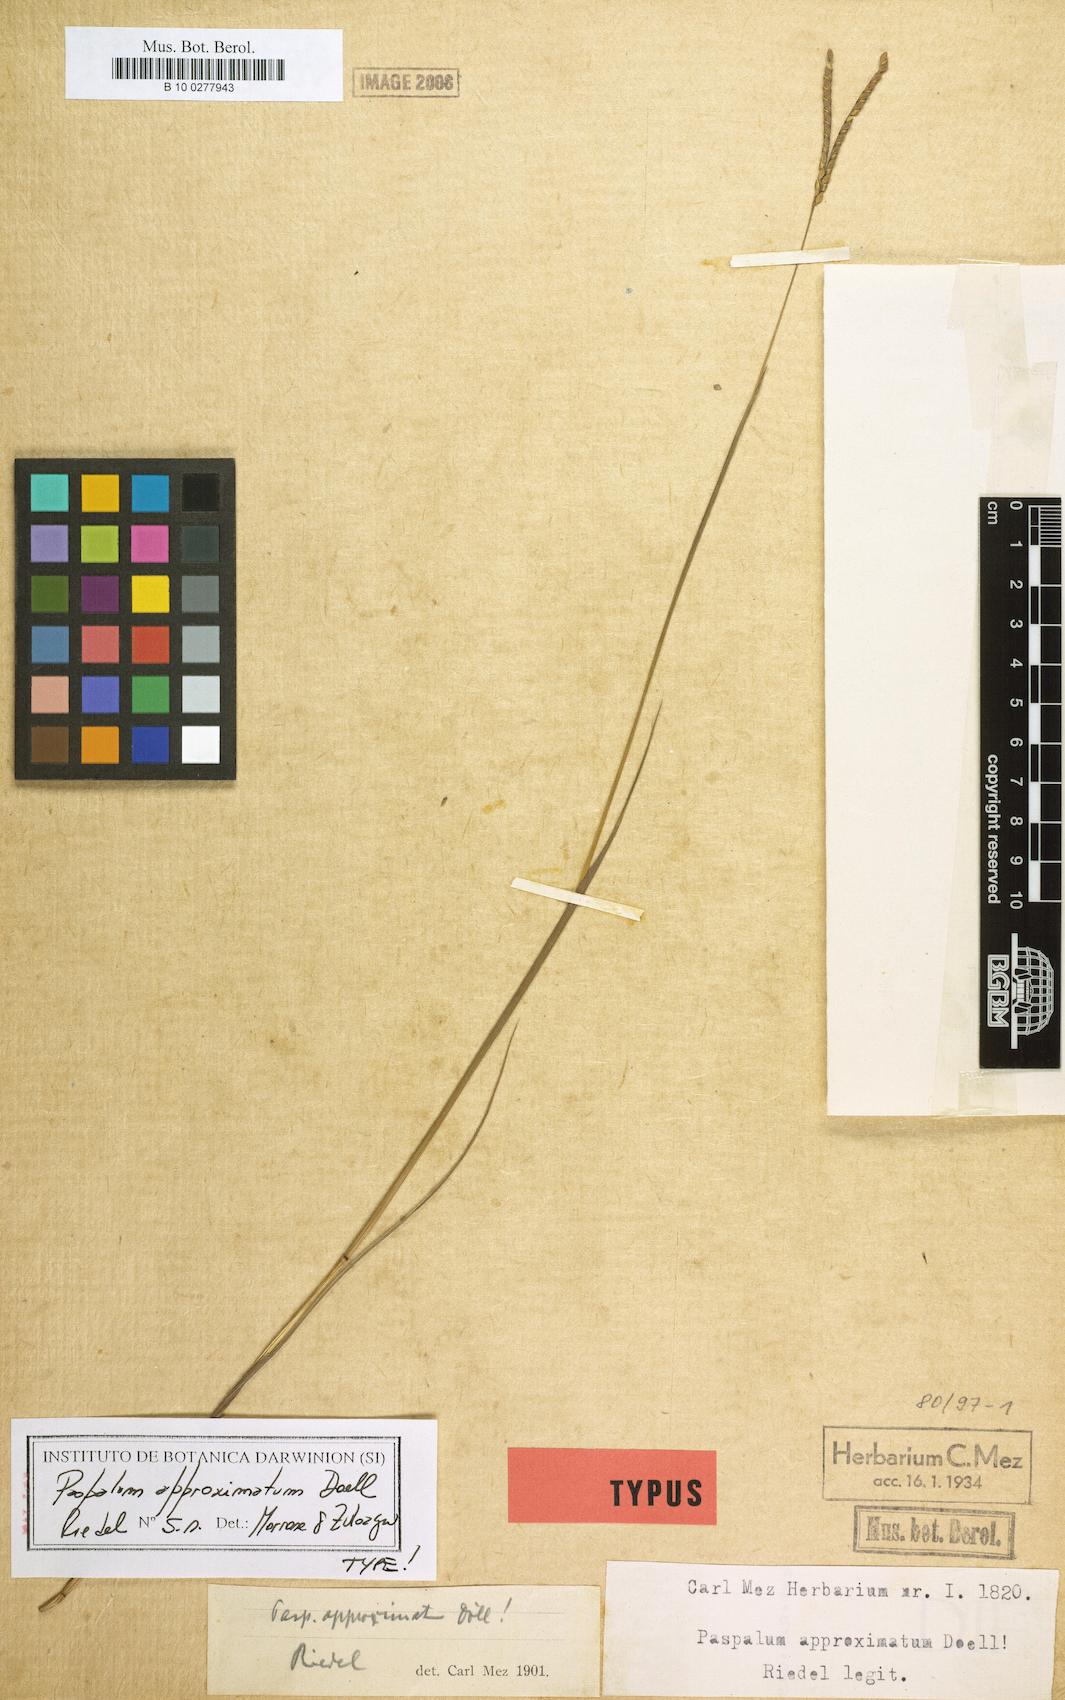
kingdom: Plantae
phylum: Tracheophyta
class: Liliopsida
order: Poales
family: Poaceae
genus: Paspalum
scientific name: Paspalum approximatum
